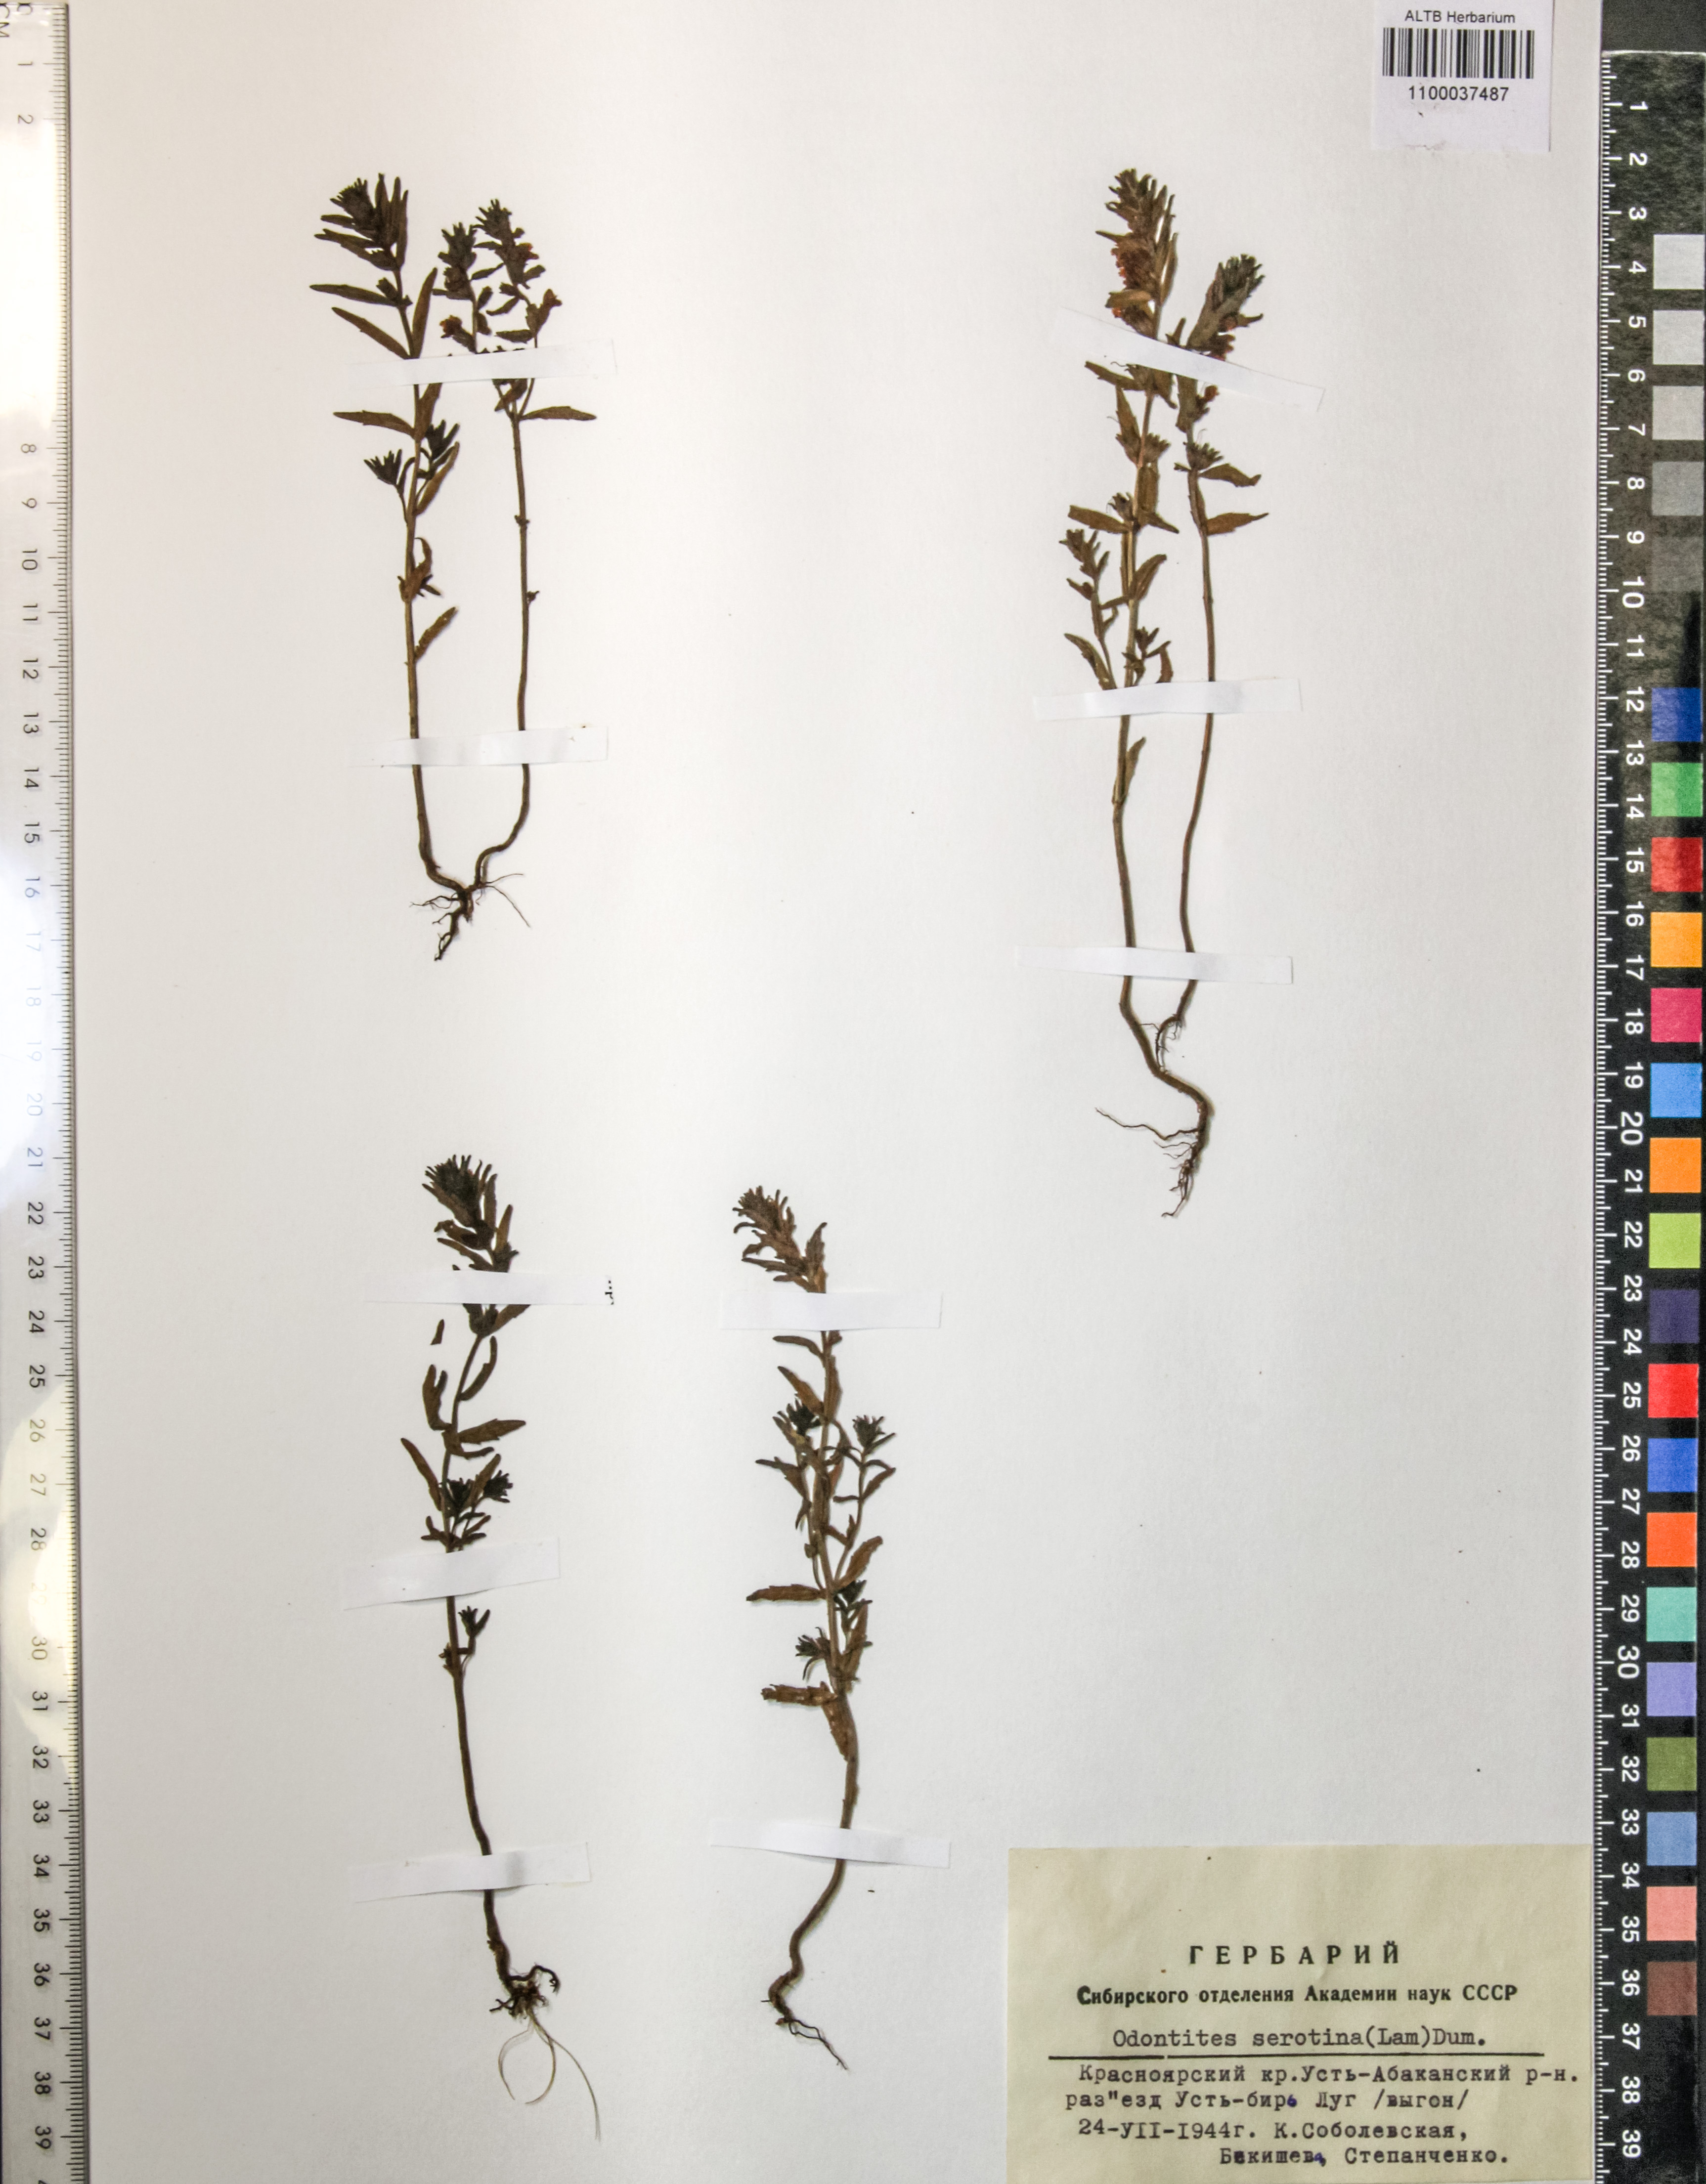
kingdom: Plantae
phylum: Tracheophyta
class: Magnoliopsida
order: Lamiales
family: Orobanchaceae
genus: Odontites
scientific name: Odontites vulgaris
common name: Broomrape
